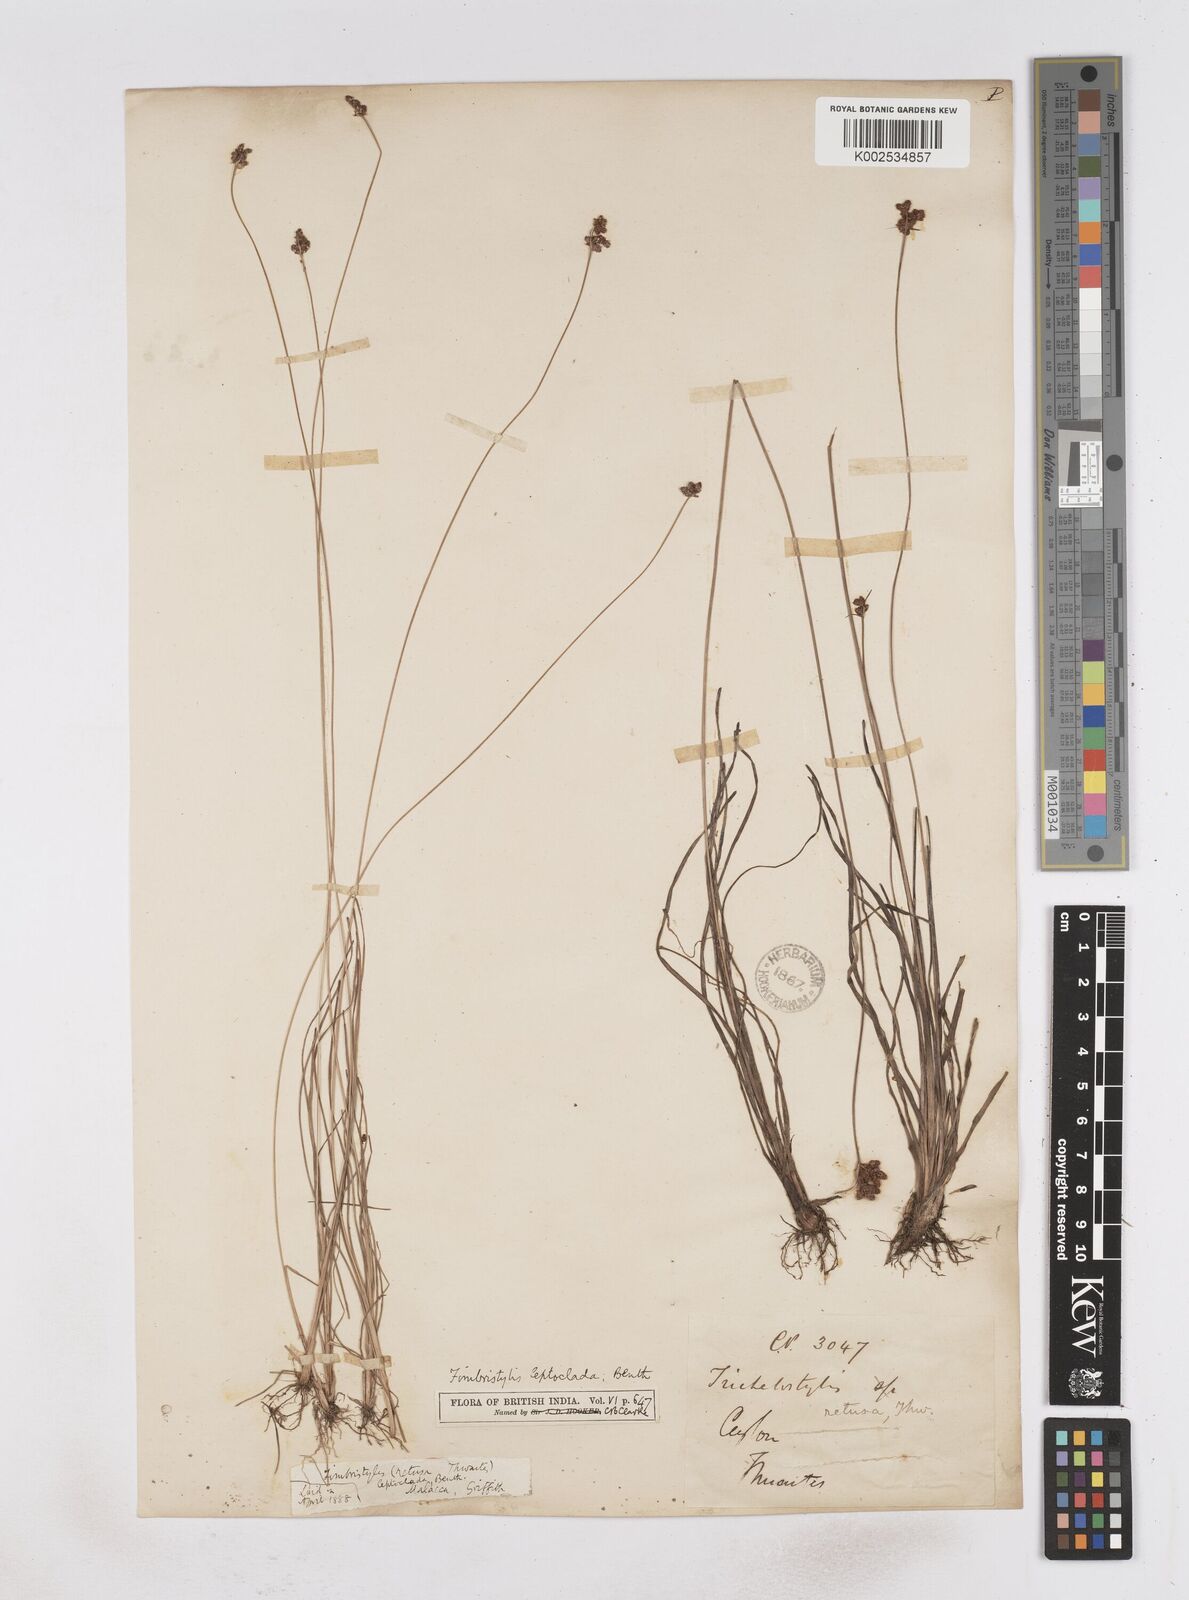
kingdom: Plantae
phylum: Tracheophyta
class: Liliopsida
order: Poales
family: Cyperaceae
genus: Fimbristylis
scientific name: Fimbristylis leptoclada
